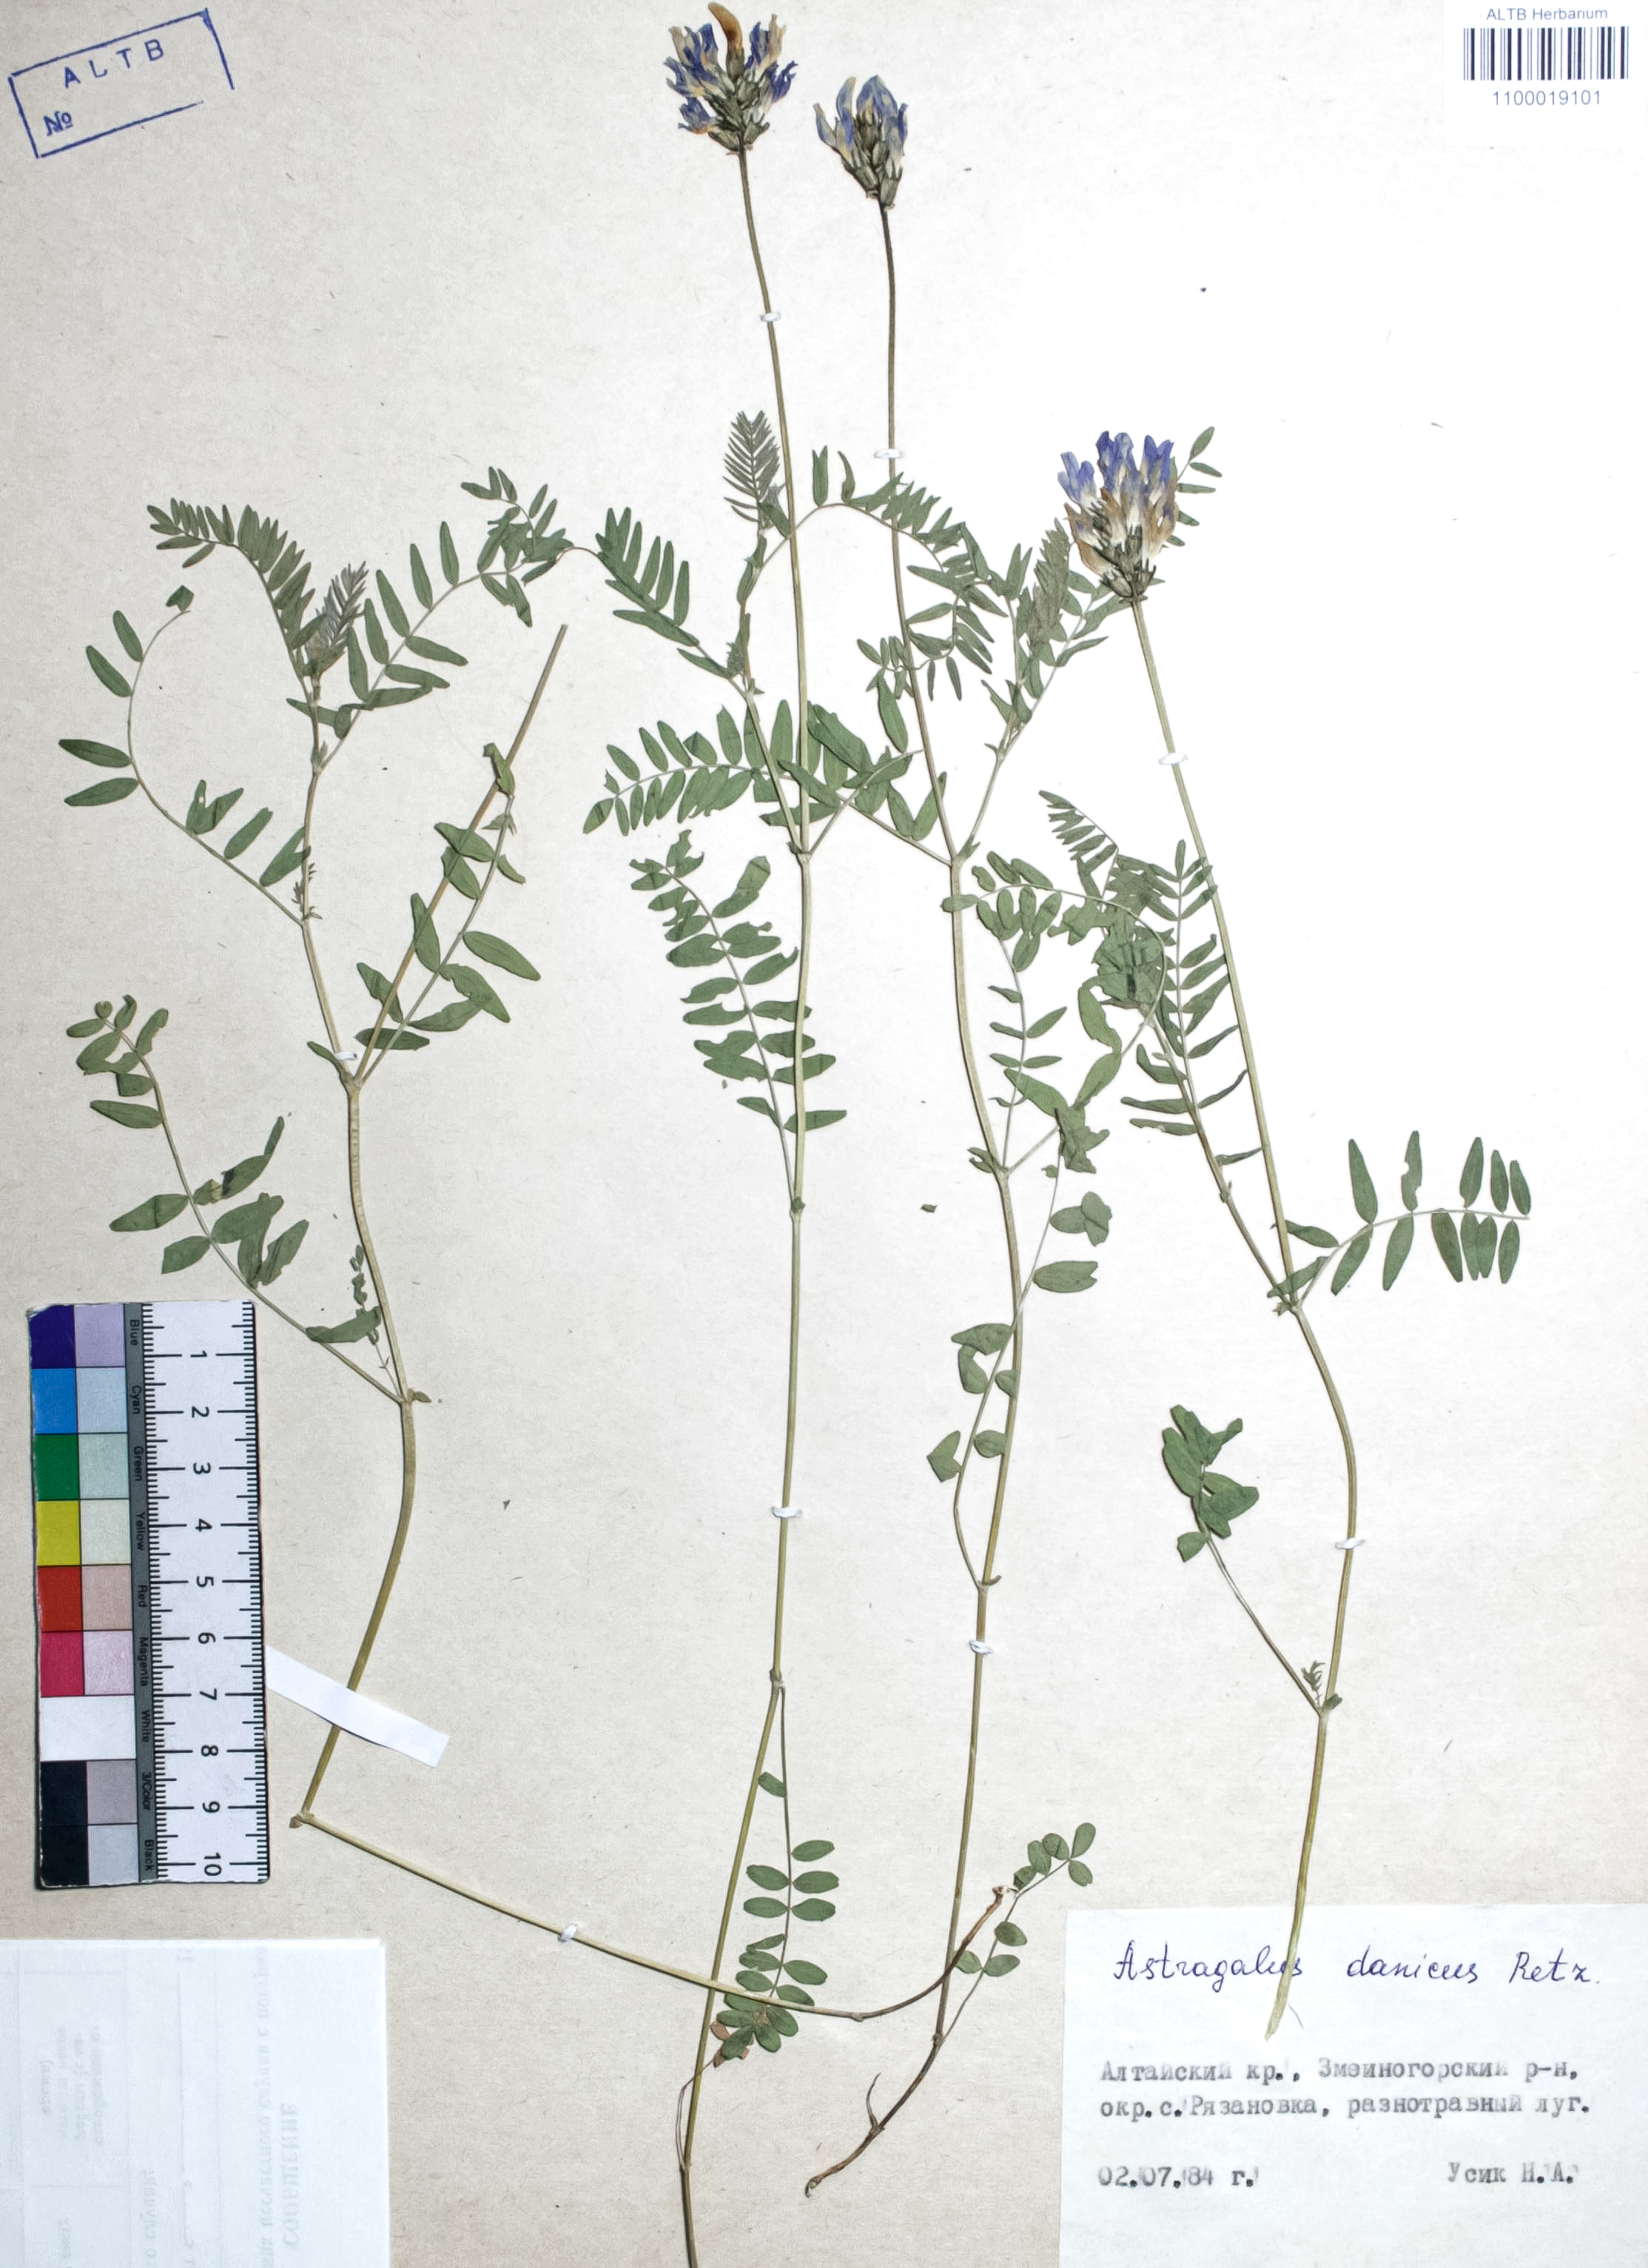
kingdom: Plantae
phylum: Tracheophyta
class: Magnoliopsida
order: Fabales
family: Fabaceae
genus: Astragalus
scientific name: Astragalus danicus
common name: Purple milk-vetch
